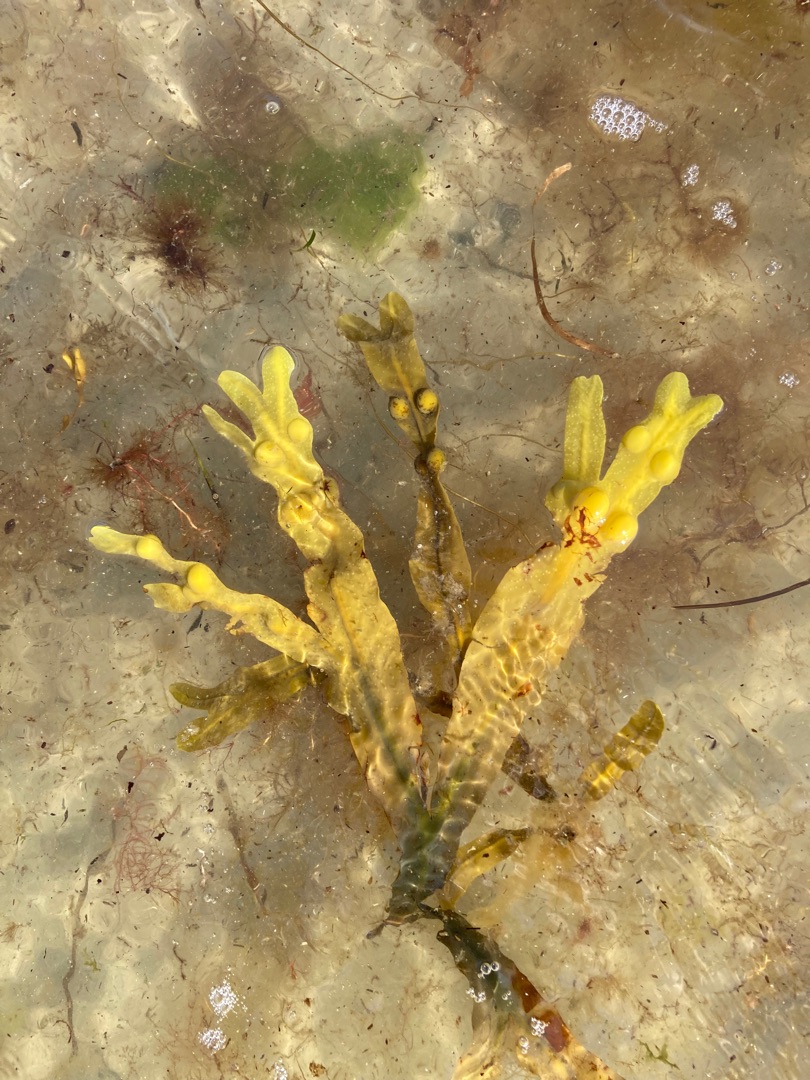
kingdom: Chromista
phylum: Ochrophyta
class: Phaeophyceae
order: Fucales
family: Fucaceae
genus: Fucus
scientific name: Fucus vesiculosus
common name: Blæretang
